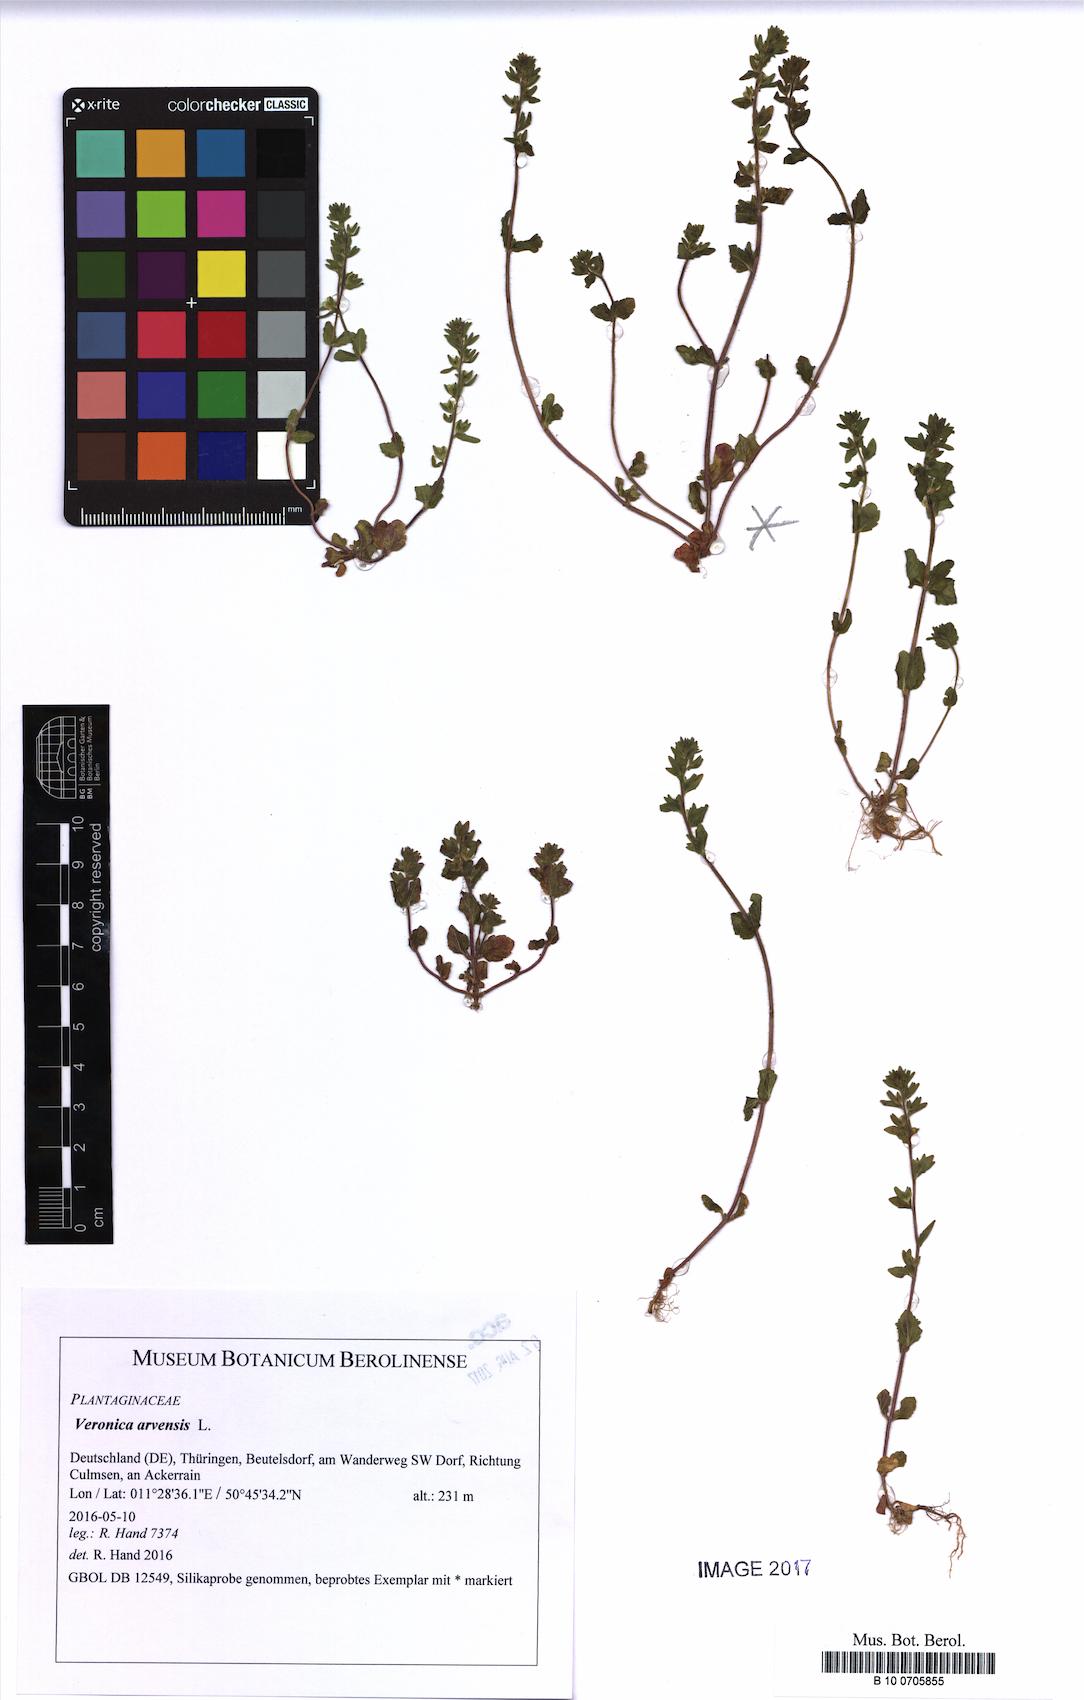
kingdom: Plantae
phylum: Tracheophyta
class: Magnoliopsida
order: Lamiales
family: Plantaginaceae
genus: Veronica
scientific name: Veronica arvensis
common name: Corn speedwell
